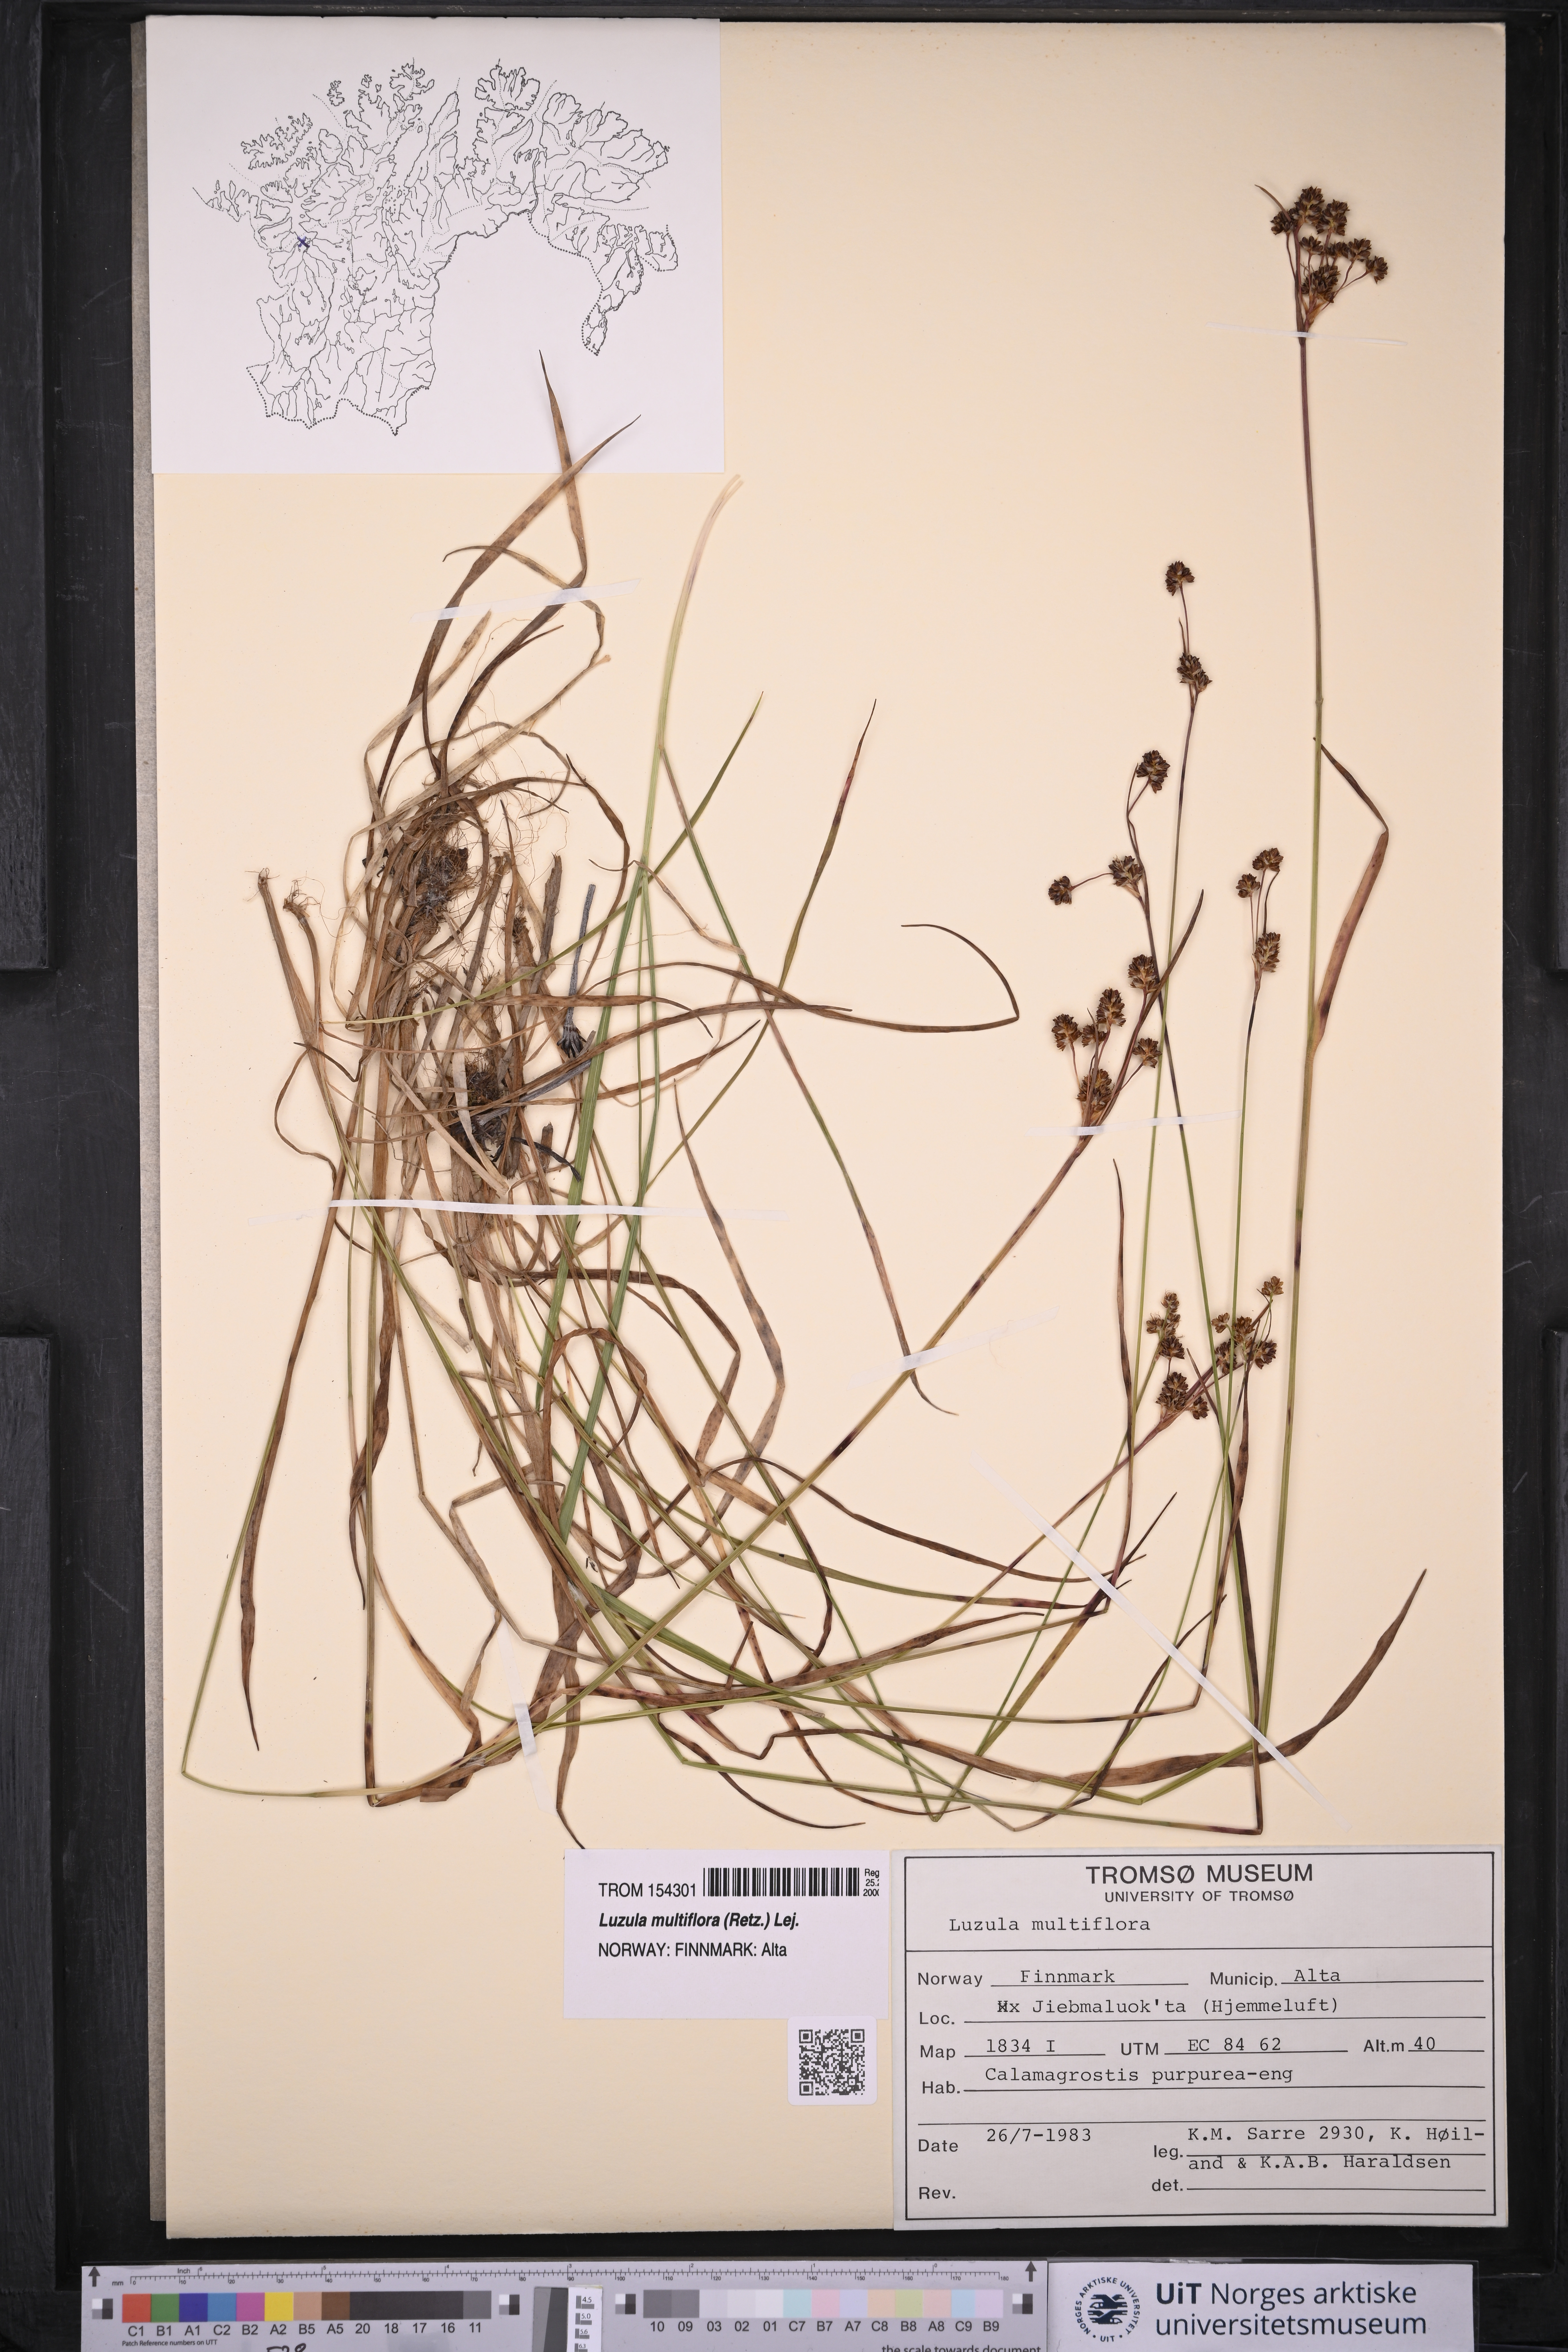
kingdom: Plantae
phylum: Tracheophyta
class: Liliopsida
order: Poales
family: Juncaceae
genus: Luzula
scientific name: Luzula multiflora
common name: Heath wood-rush
